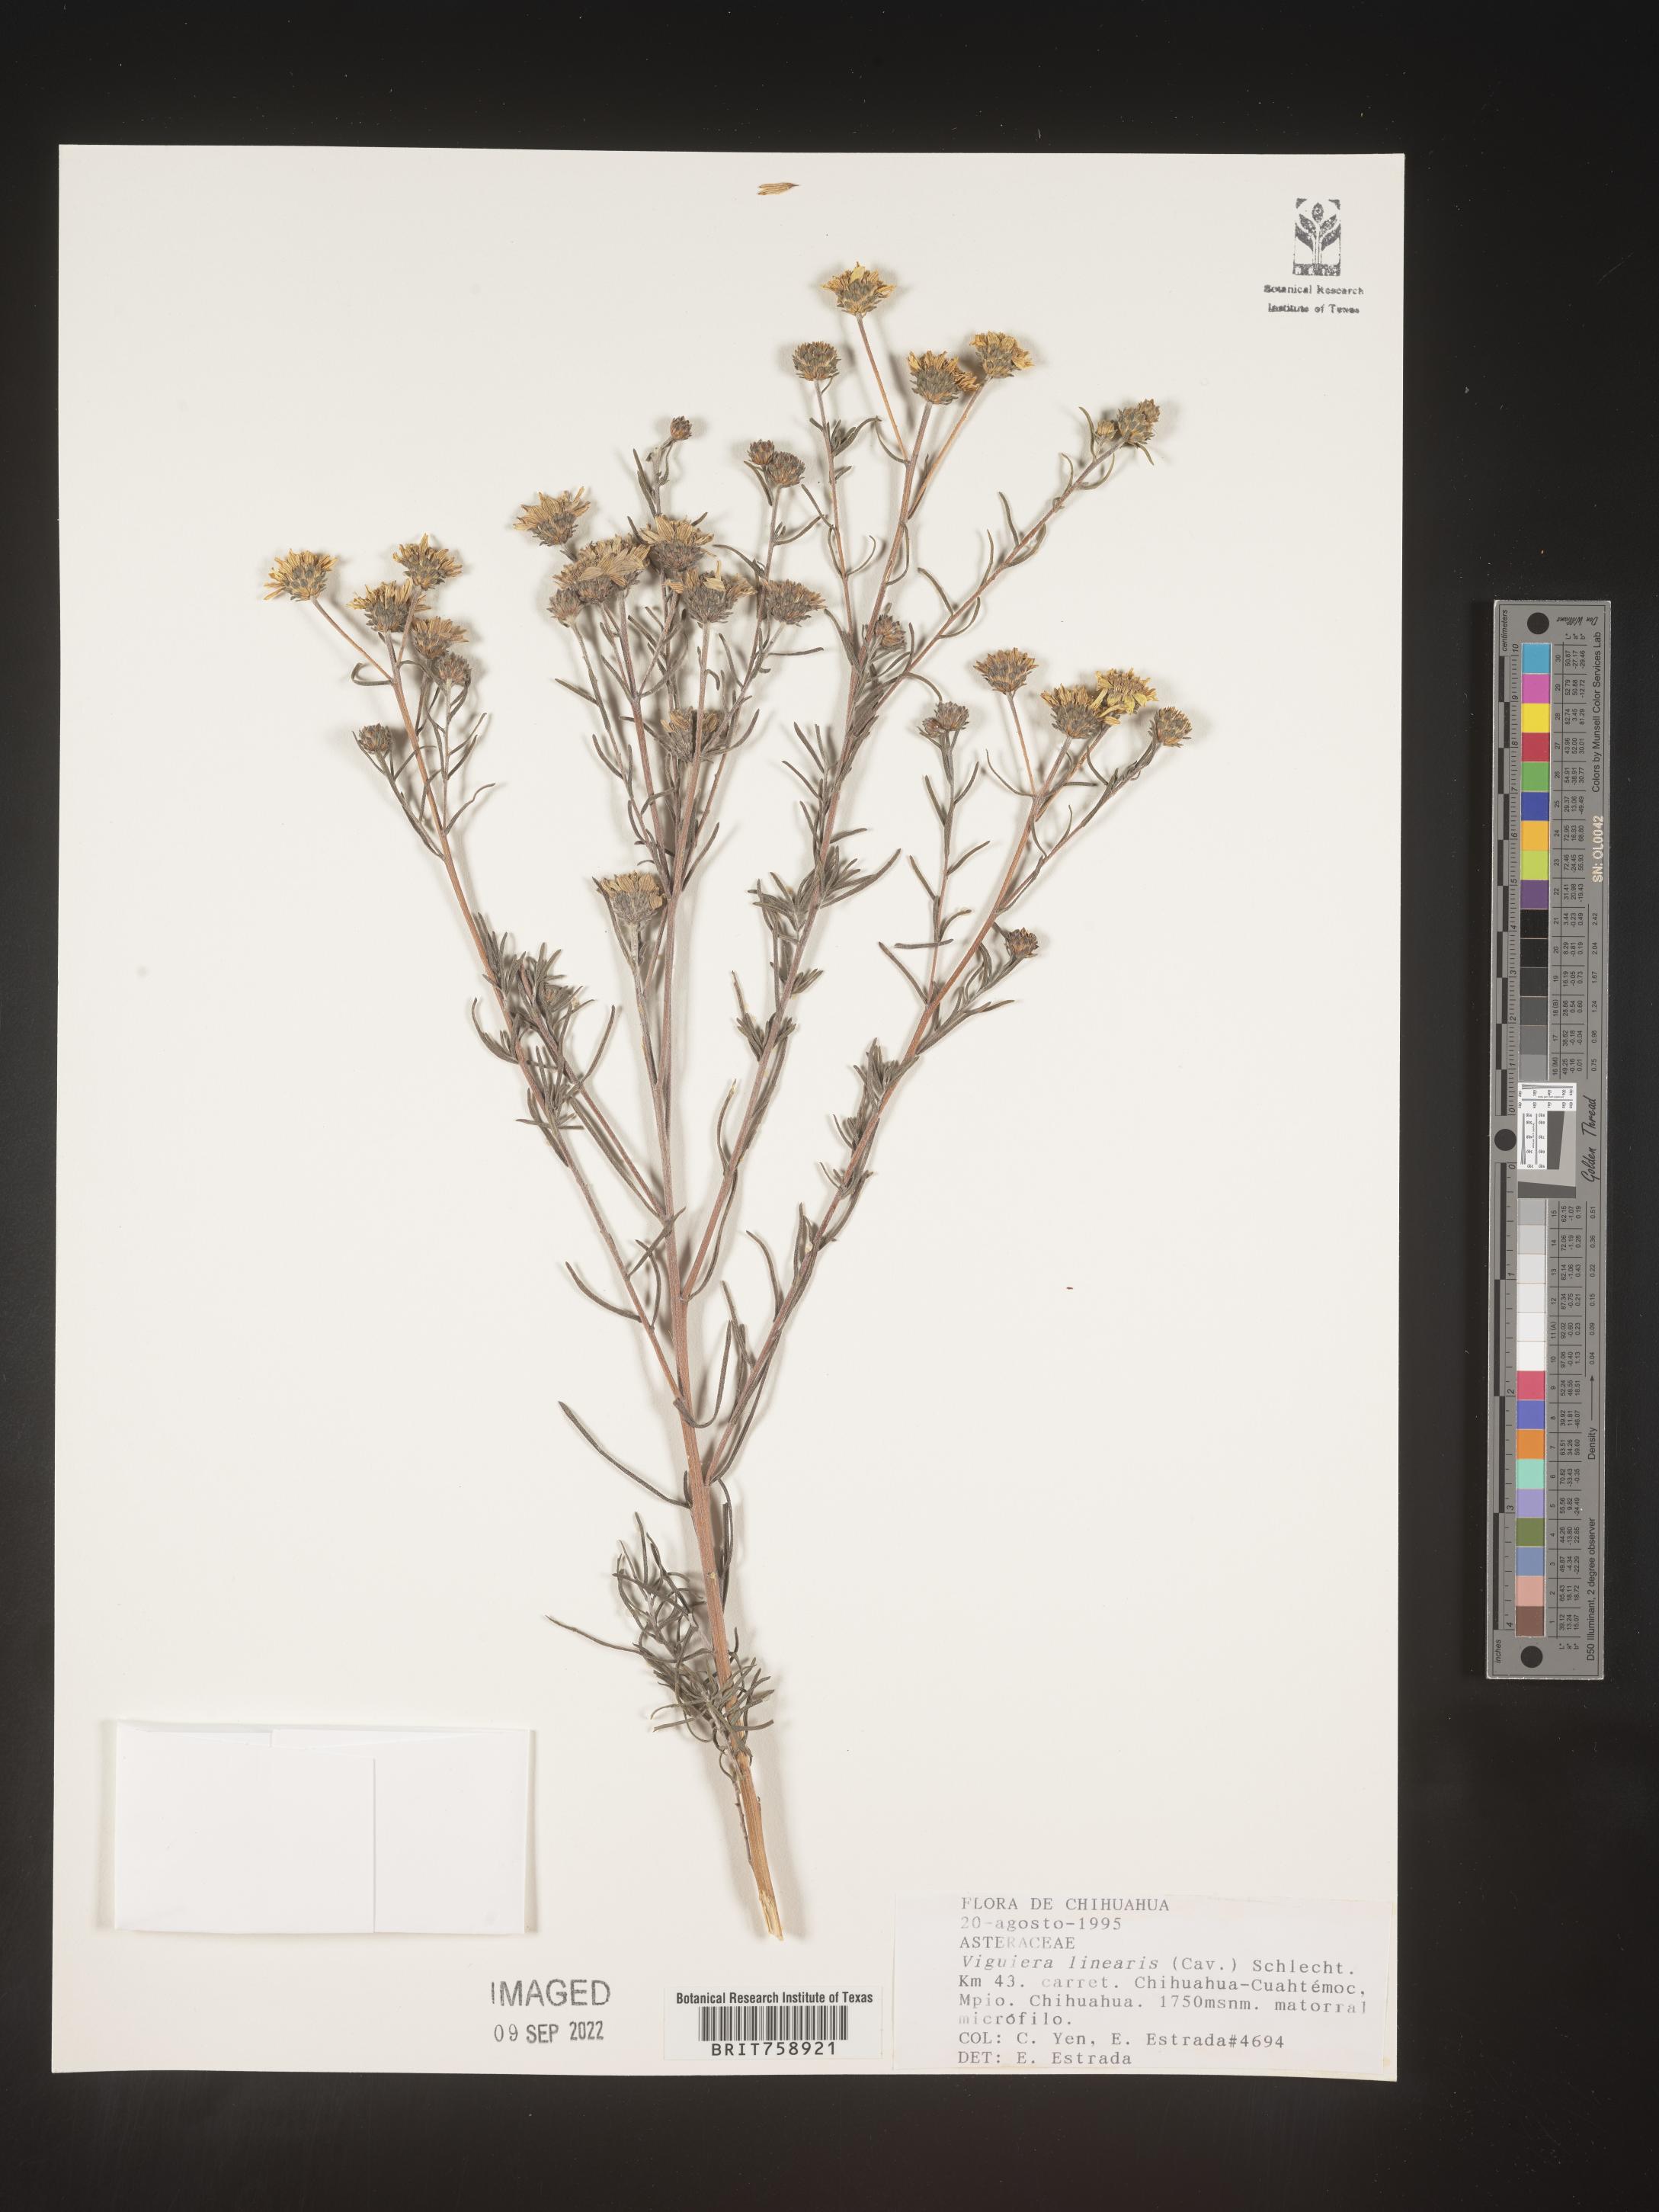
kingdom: Plantae
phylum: Tracheophyta
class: Magnoliopsida
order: Asterales
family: Asteraceae
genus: Viguiera
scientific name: Viguiera
